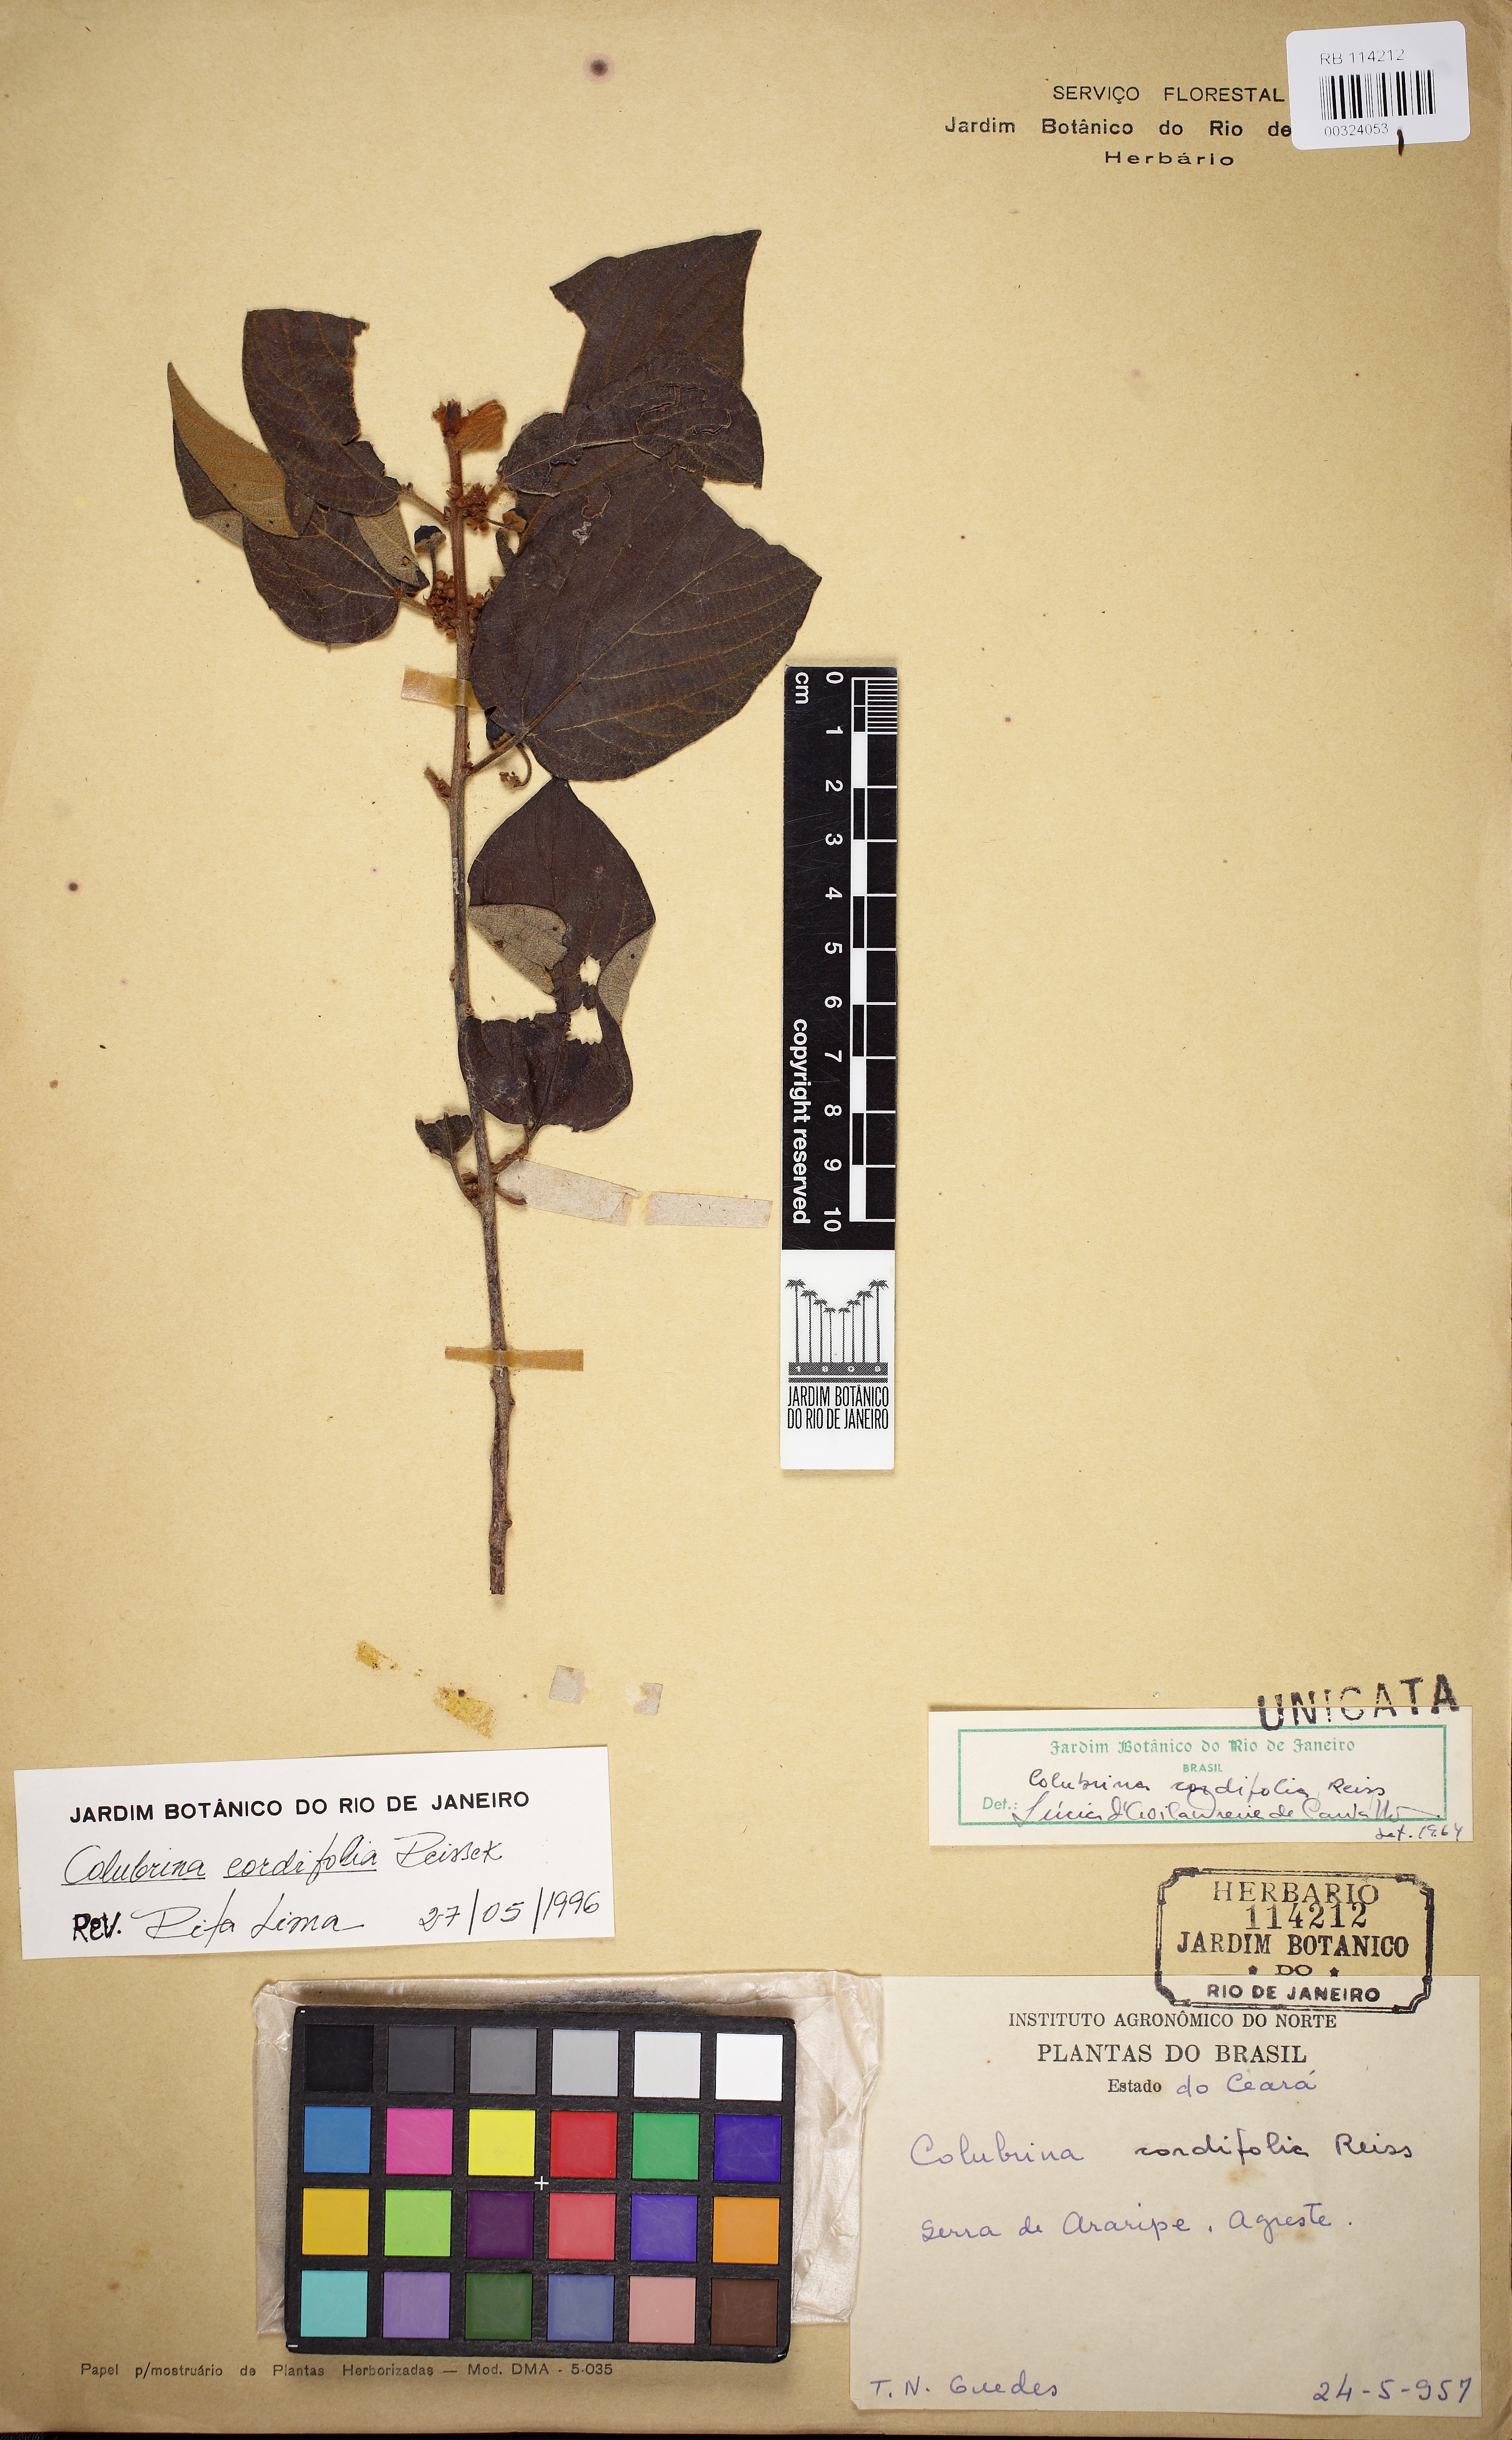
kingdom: Plantae
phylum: Tracheophyta
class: Magnoliopsida
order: Rosales
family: Rhamnaceae
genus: Colubrina
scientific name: Colubrina cordifolia
